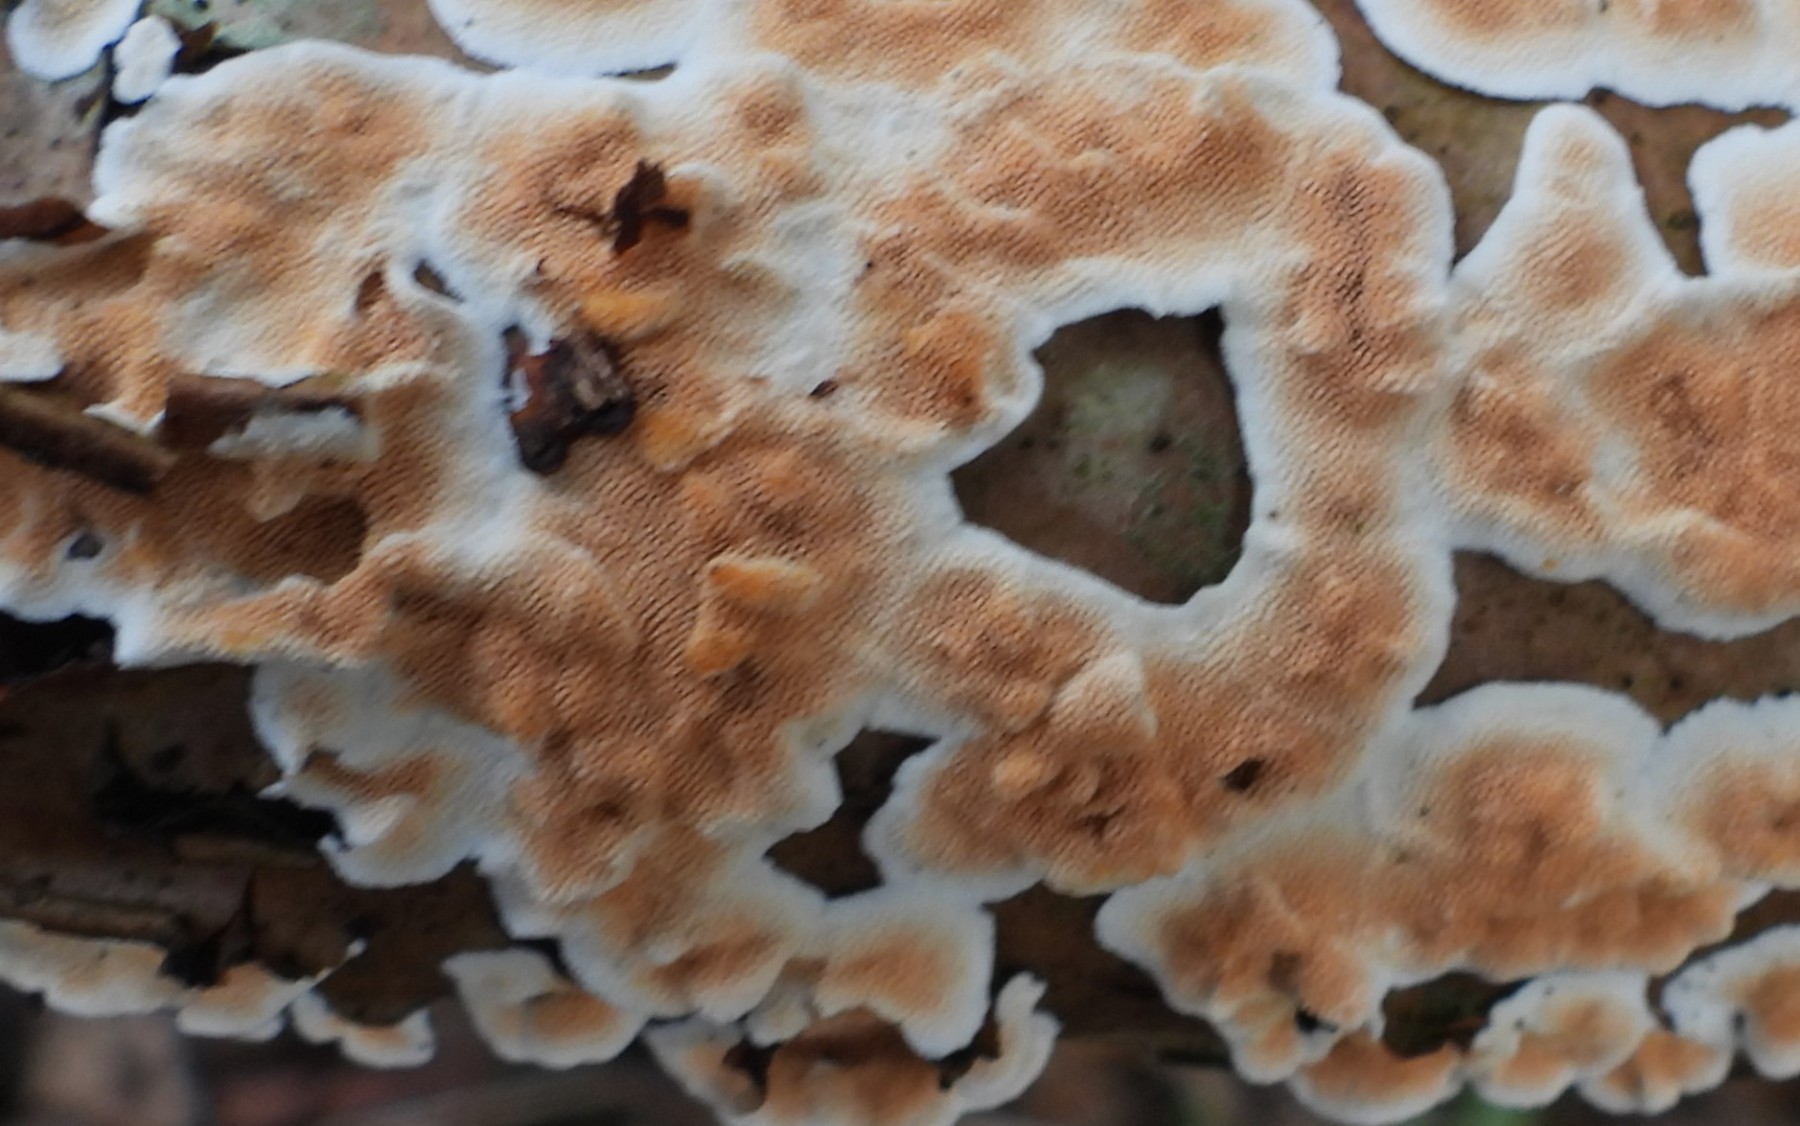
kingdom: Fungi
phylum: Basidiomycota
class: Agaricomycetes
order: Polyporales
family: Steccherinaceae
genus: Steccherinum
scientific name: Steccherinum ochraceum
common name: almindelig skønpig
